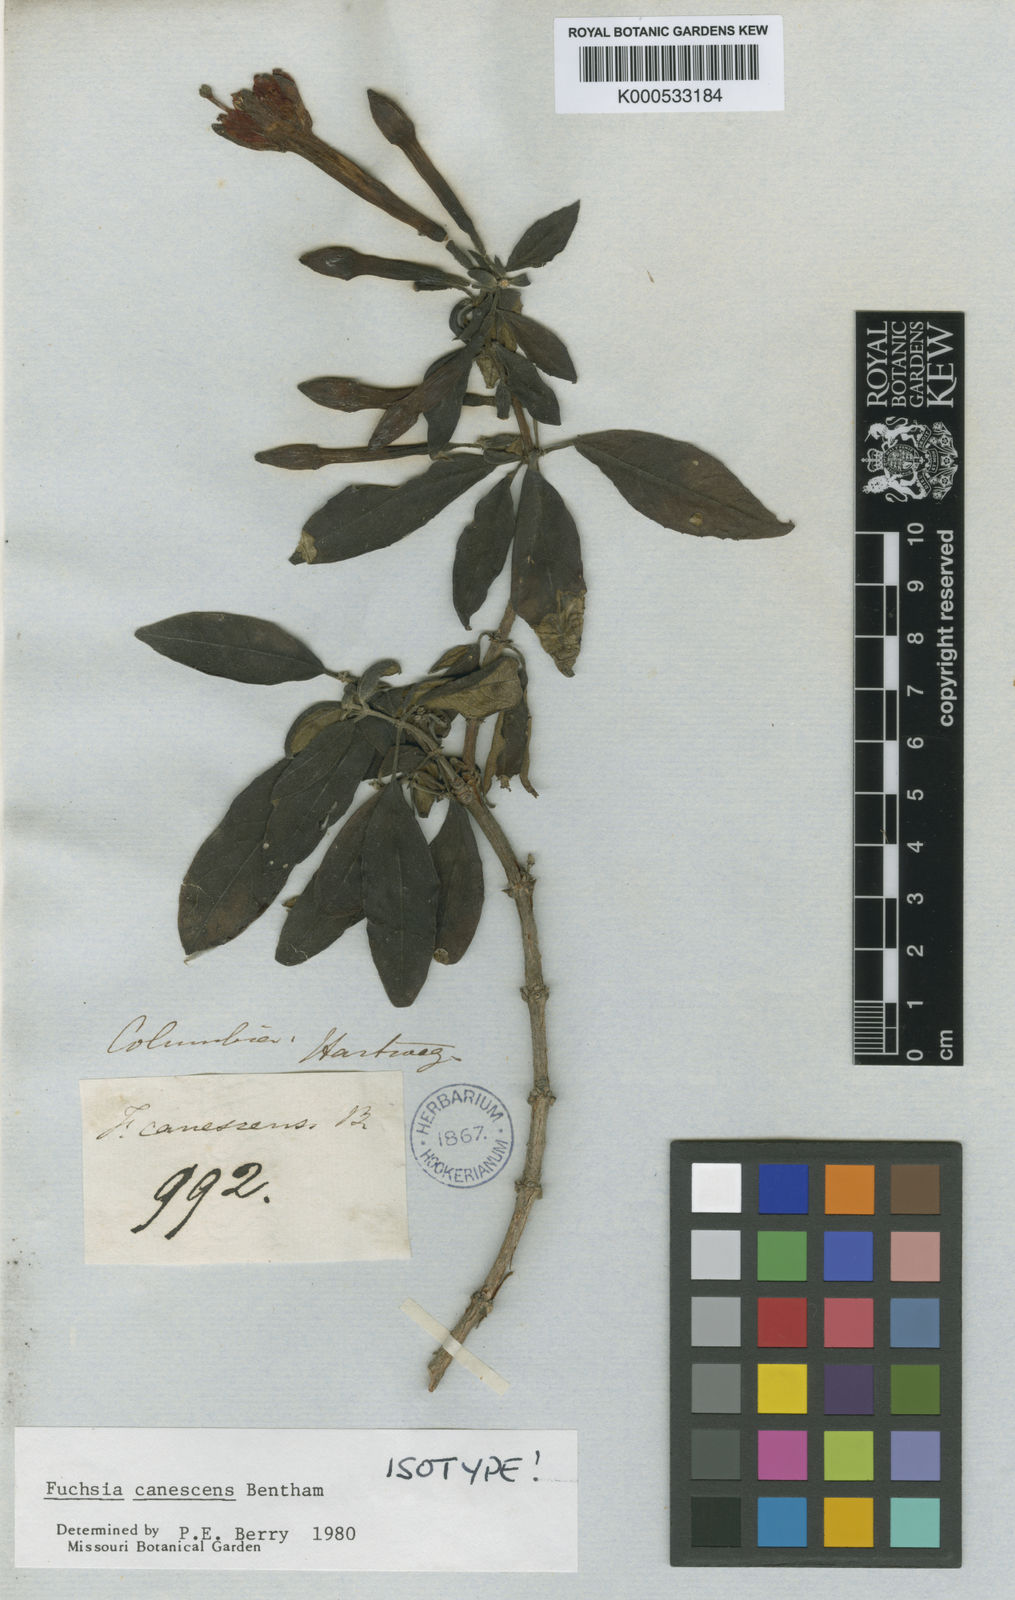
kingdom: Plantae
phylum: Tracheophyta
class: Magnoliopsida
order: Myrtales
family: Onagraceae
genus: Fuchsia
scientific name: Fuchsia canescens
